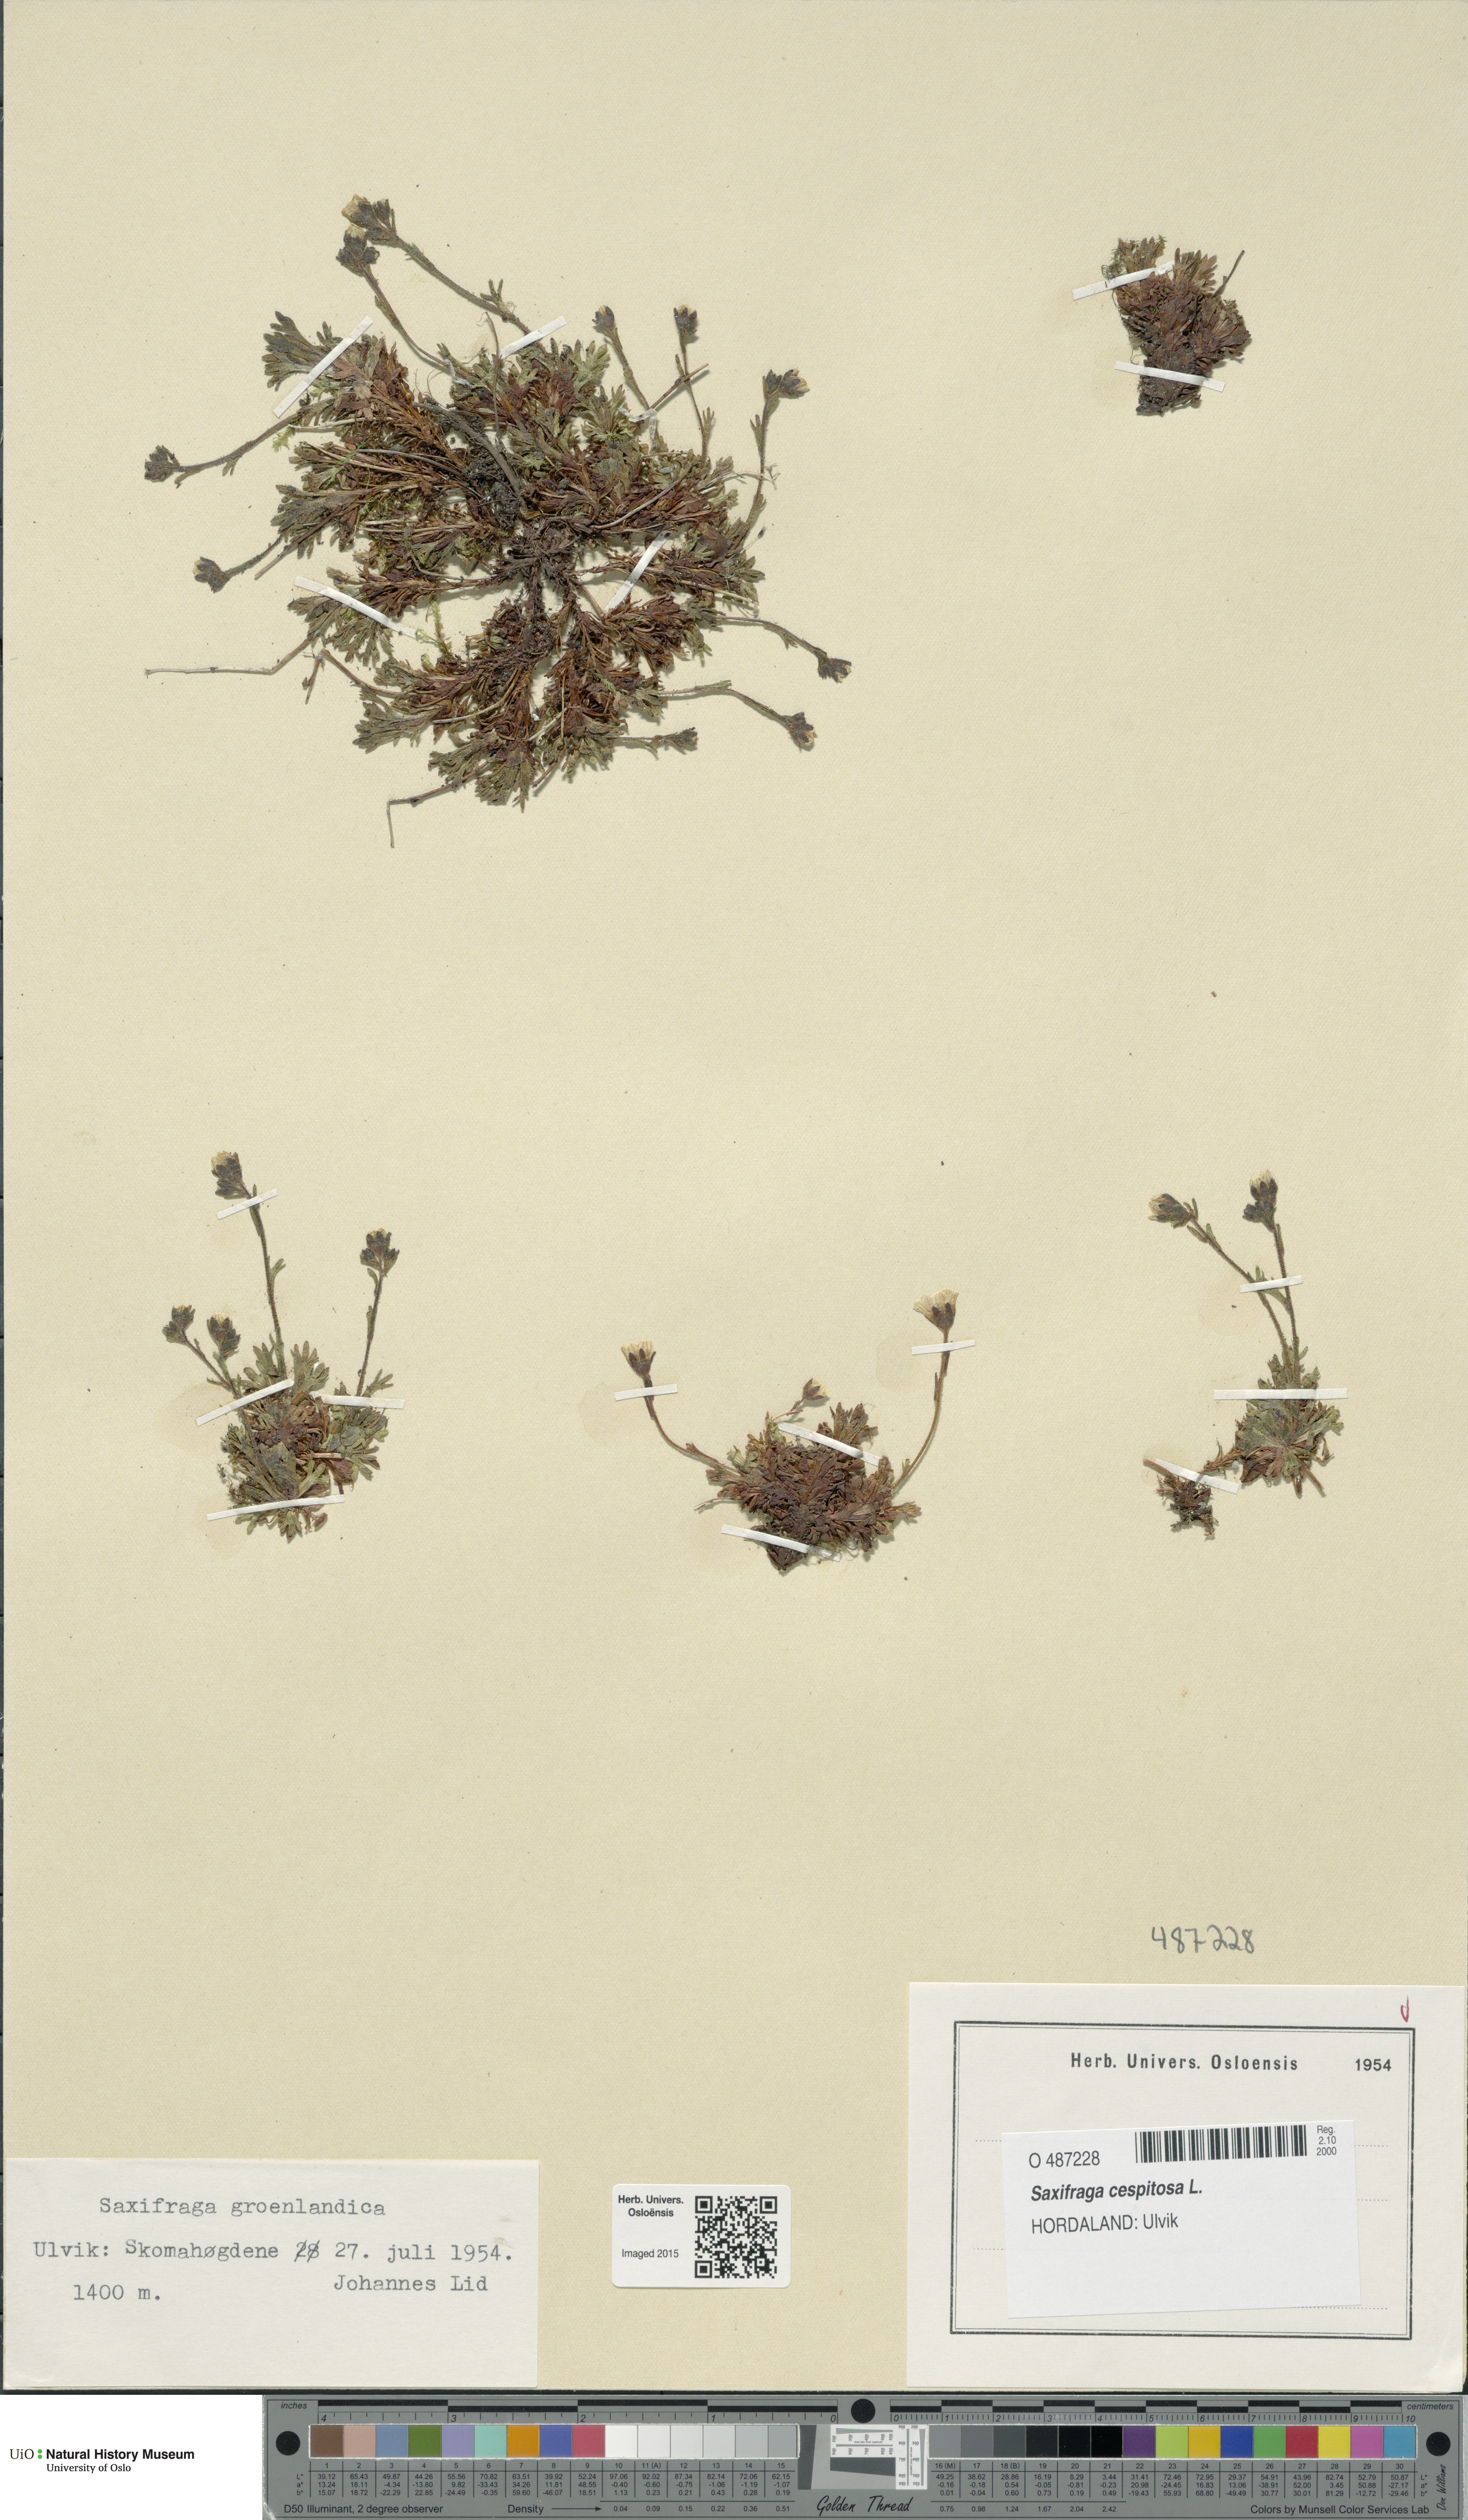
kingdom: Plantae
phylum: Tracheophyta
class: Magnoliopsida
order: Saxifragales
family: Saxifragaceae
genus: Saxifraga
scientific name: Saxifraga cespitosa
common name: Tufted saxifrage
